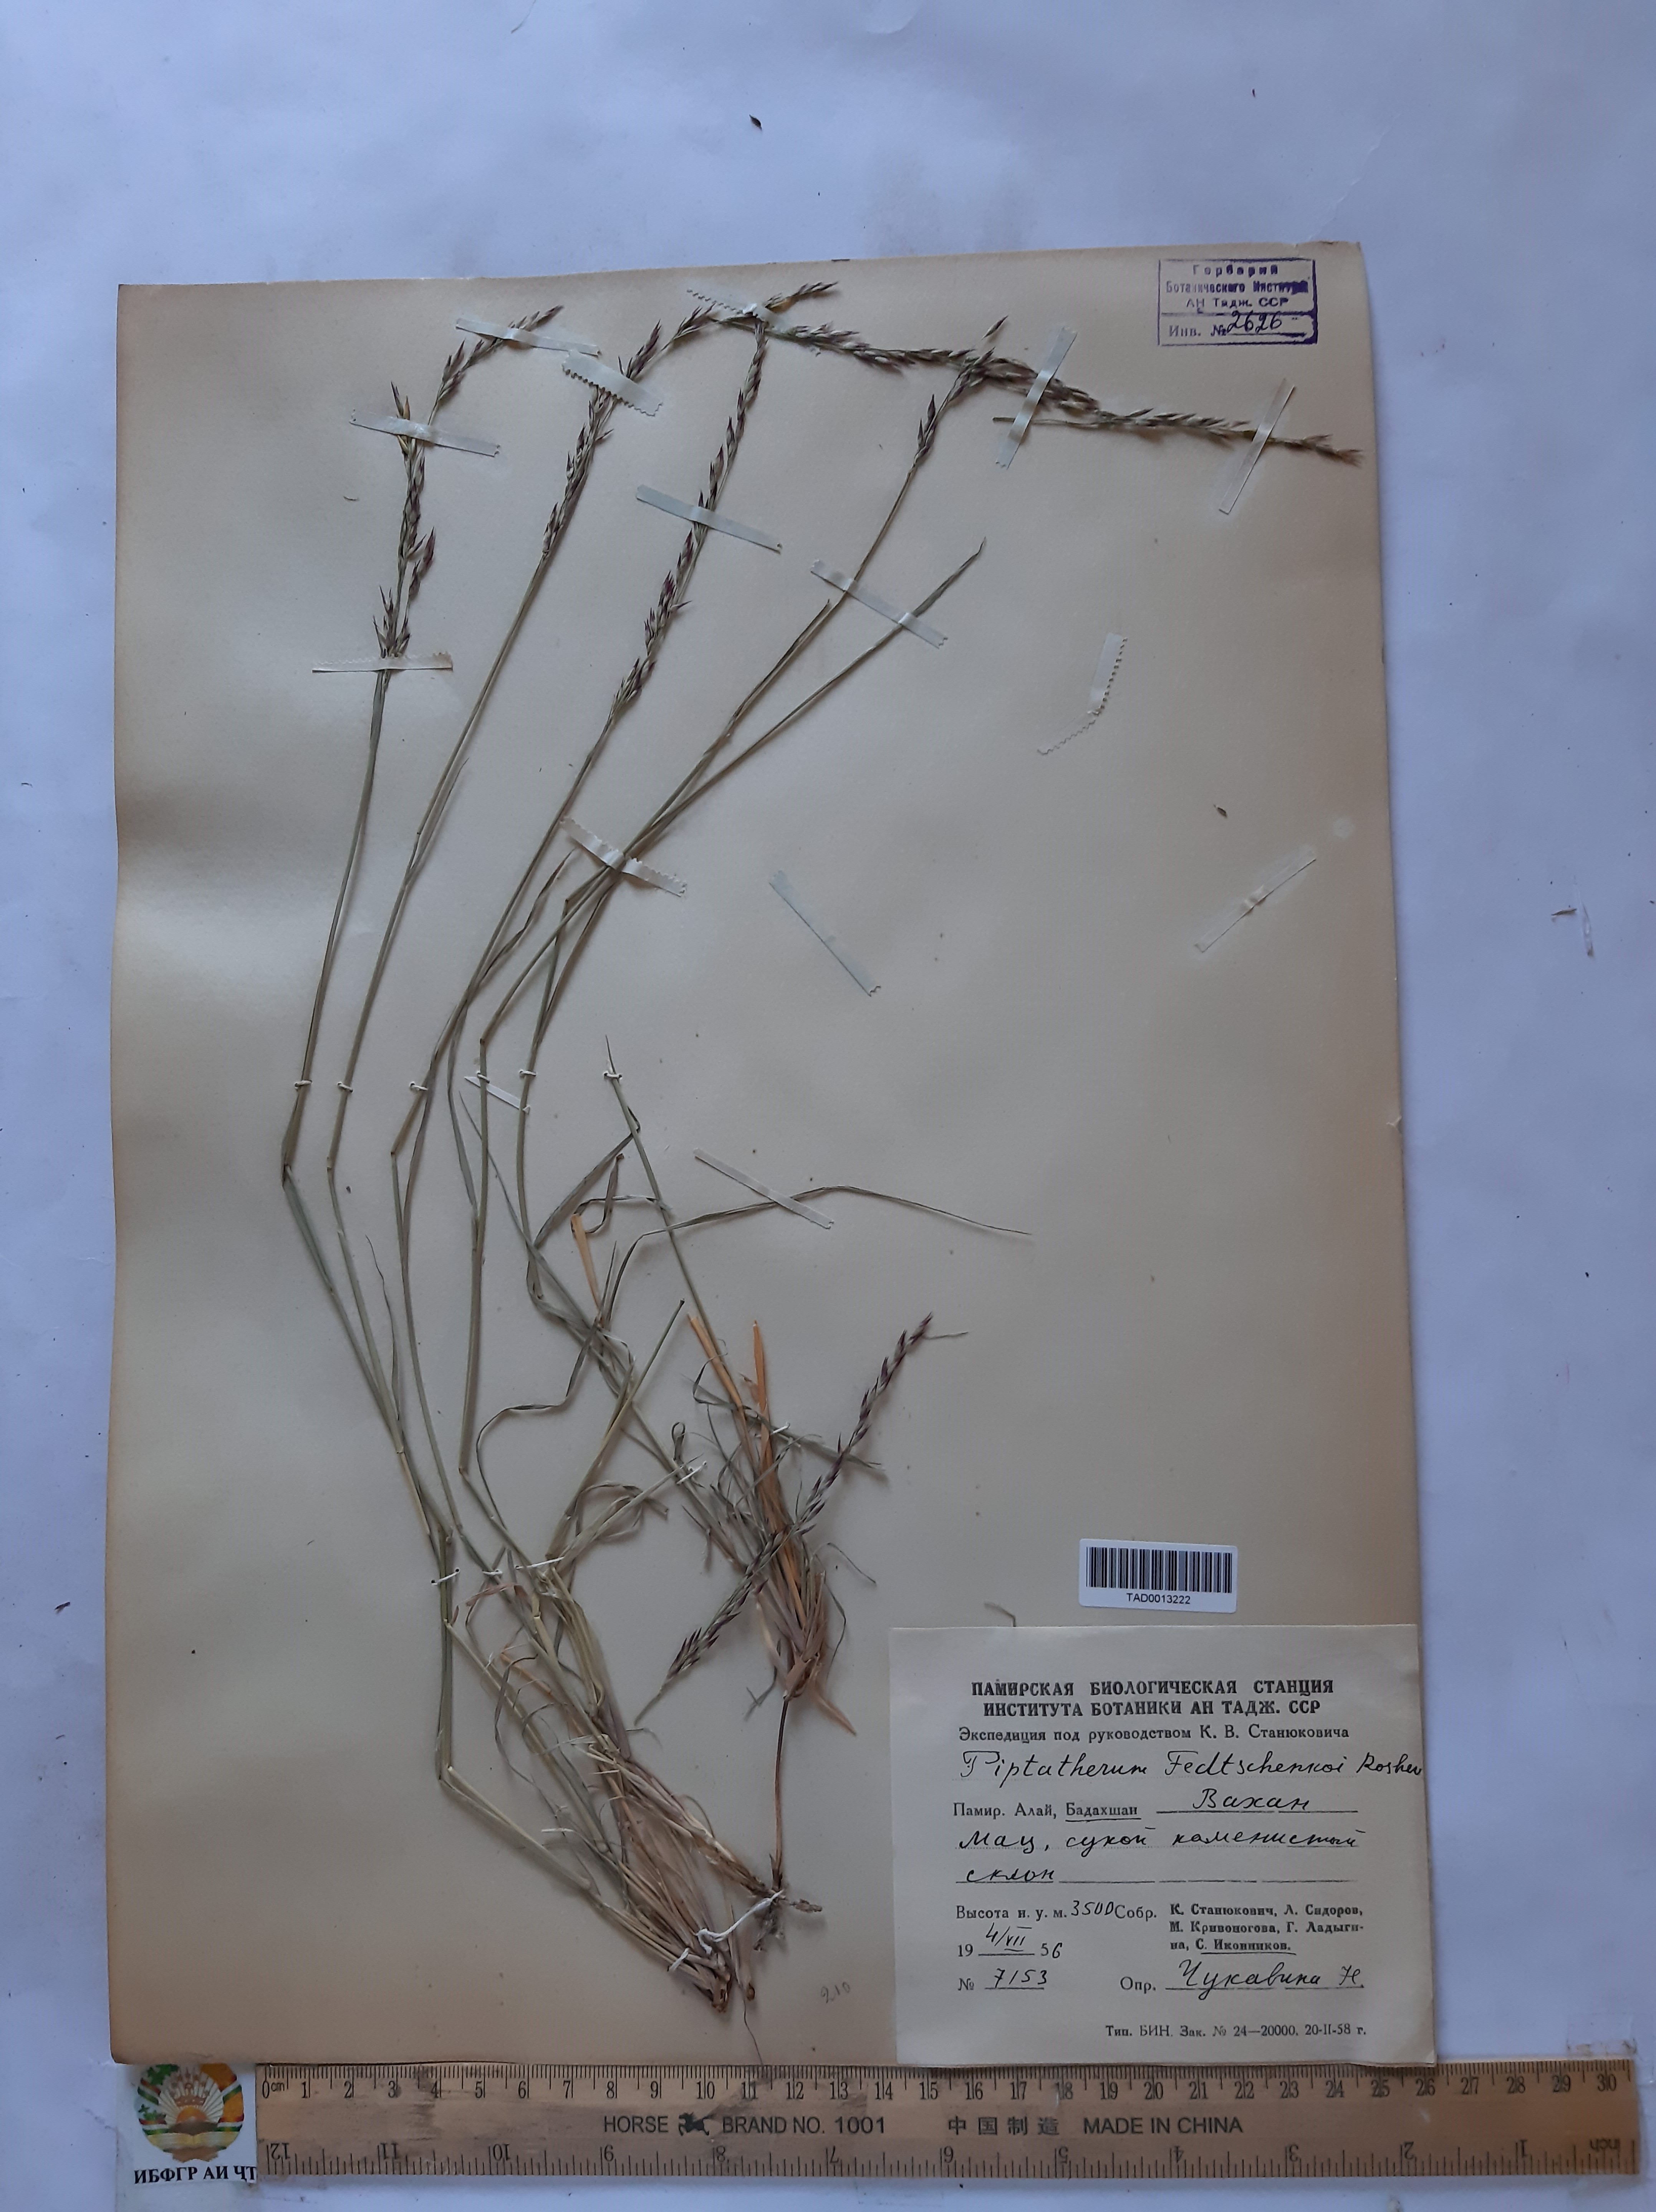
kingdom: Plantae
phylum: Tracheophyta
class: Liliopsida
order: Poales
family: Poaceae
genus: Piptatherum
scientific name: Piptatherum sogdianum
